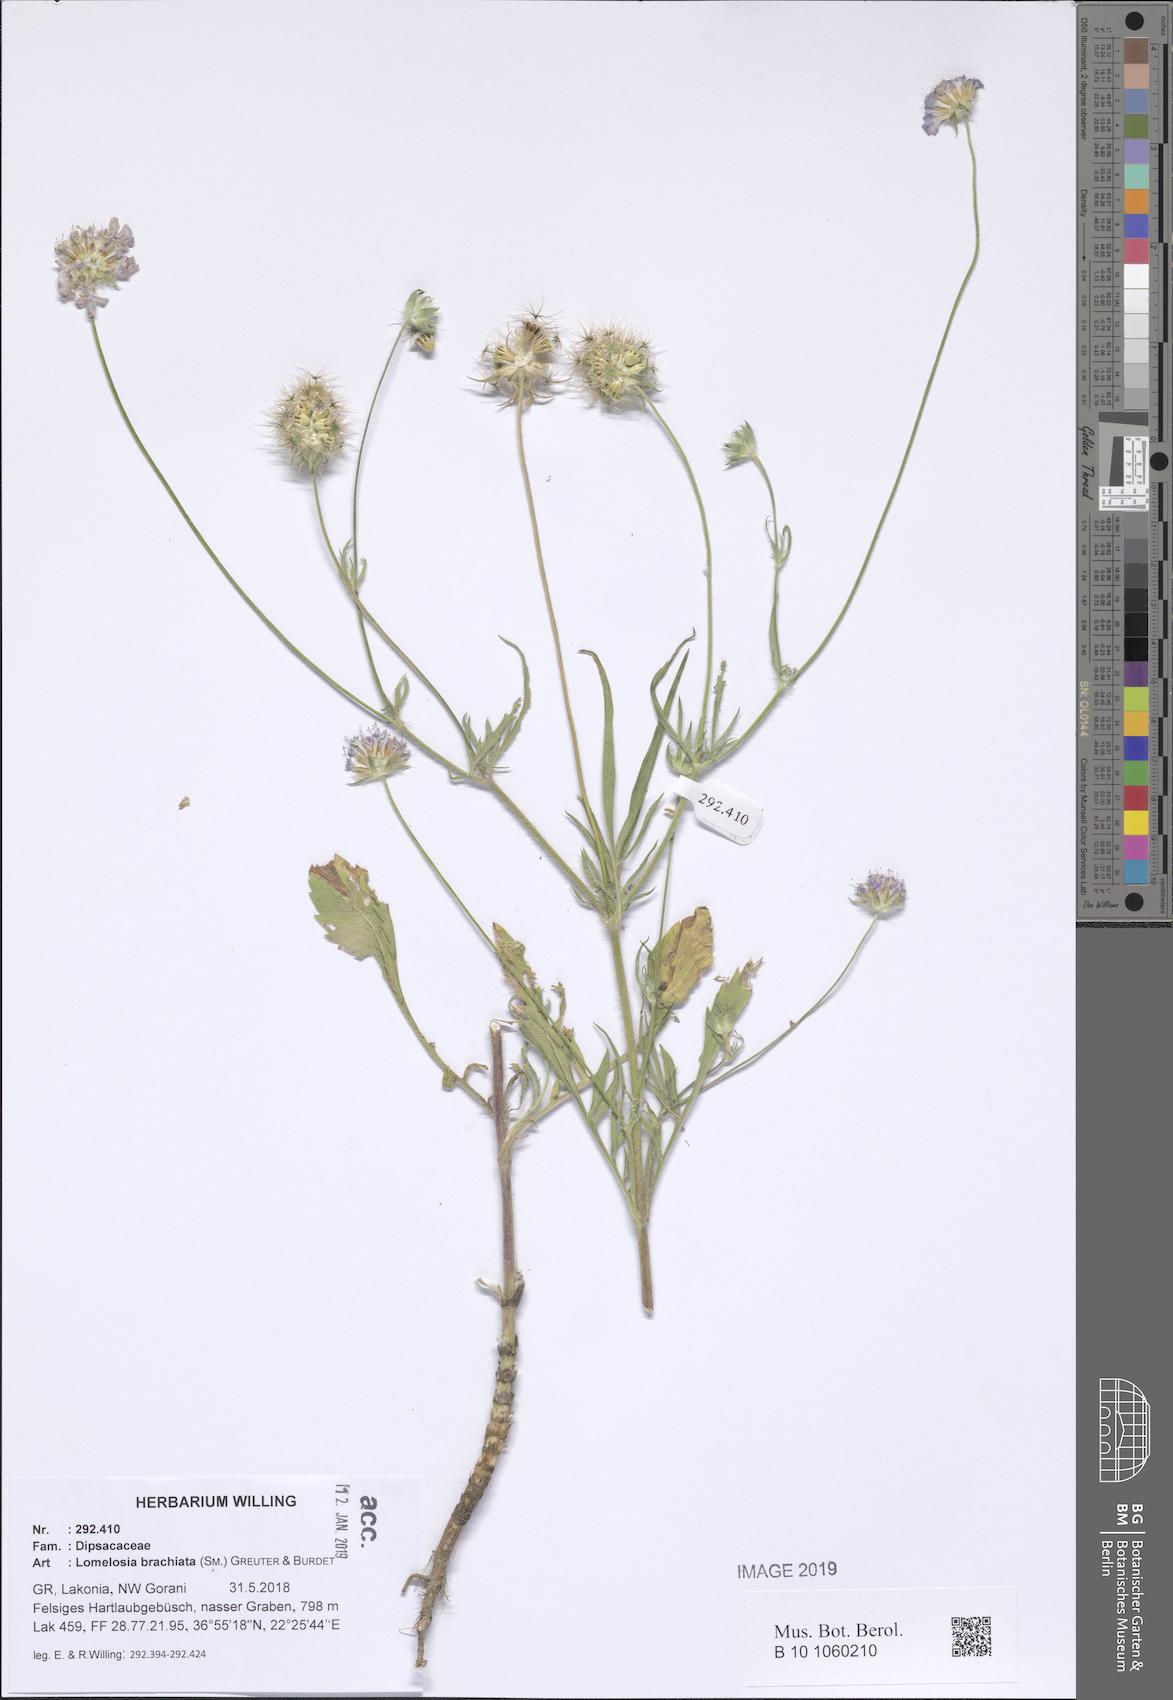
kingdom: Plantae
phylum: Tracheophyta
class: Magnoliopsida
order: Dipsacales
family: Caprifoliaceae
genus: Lomelosia
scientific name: Lomelosia brachiata
